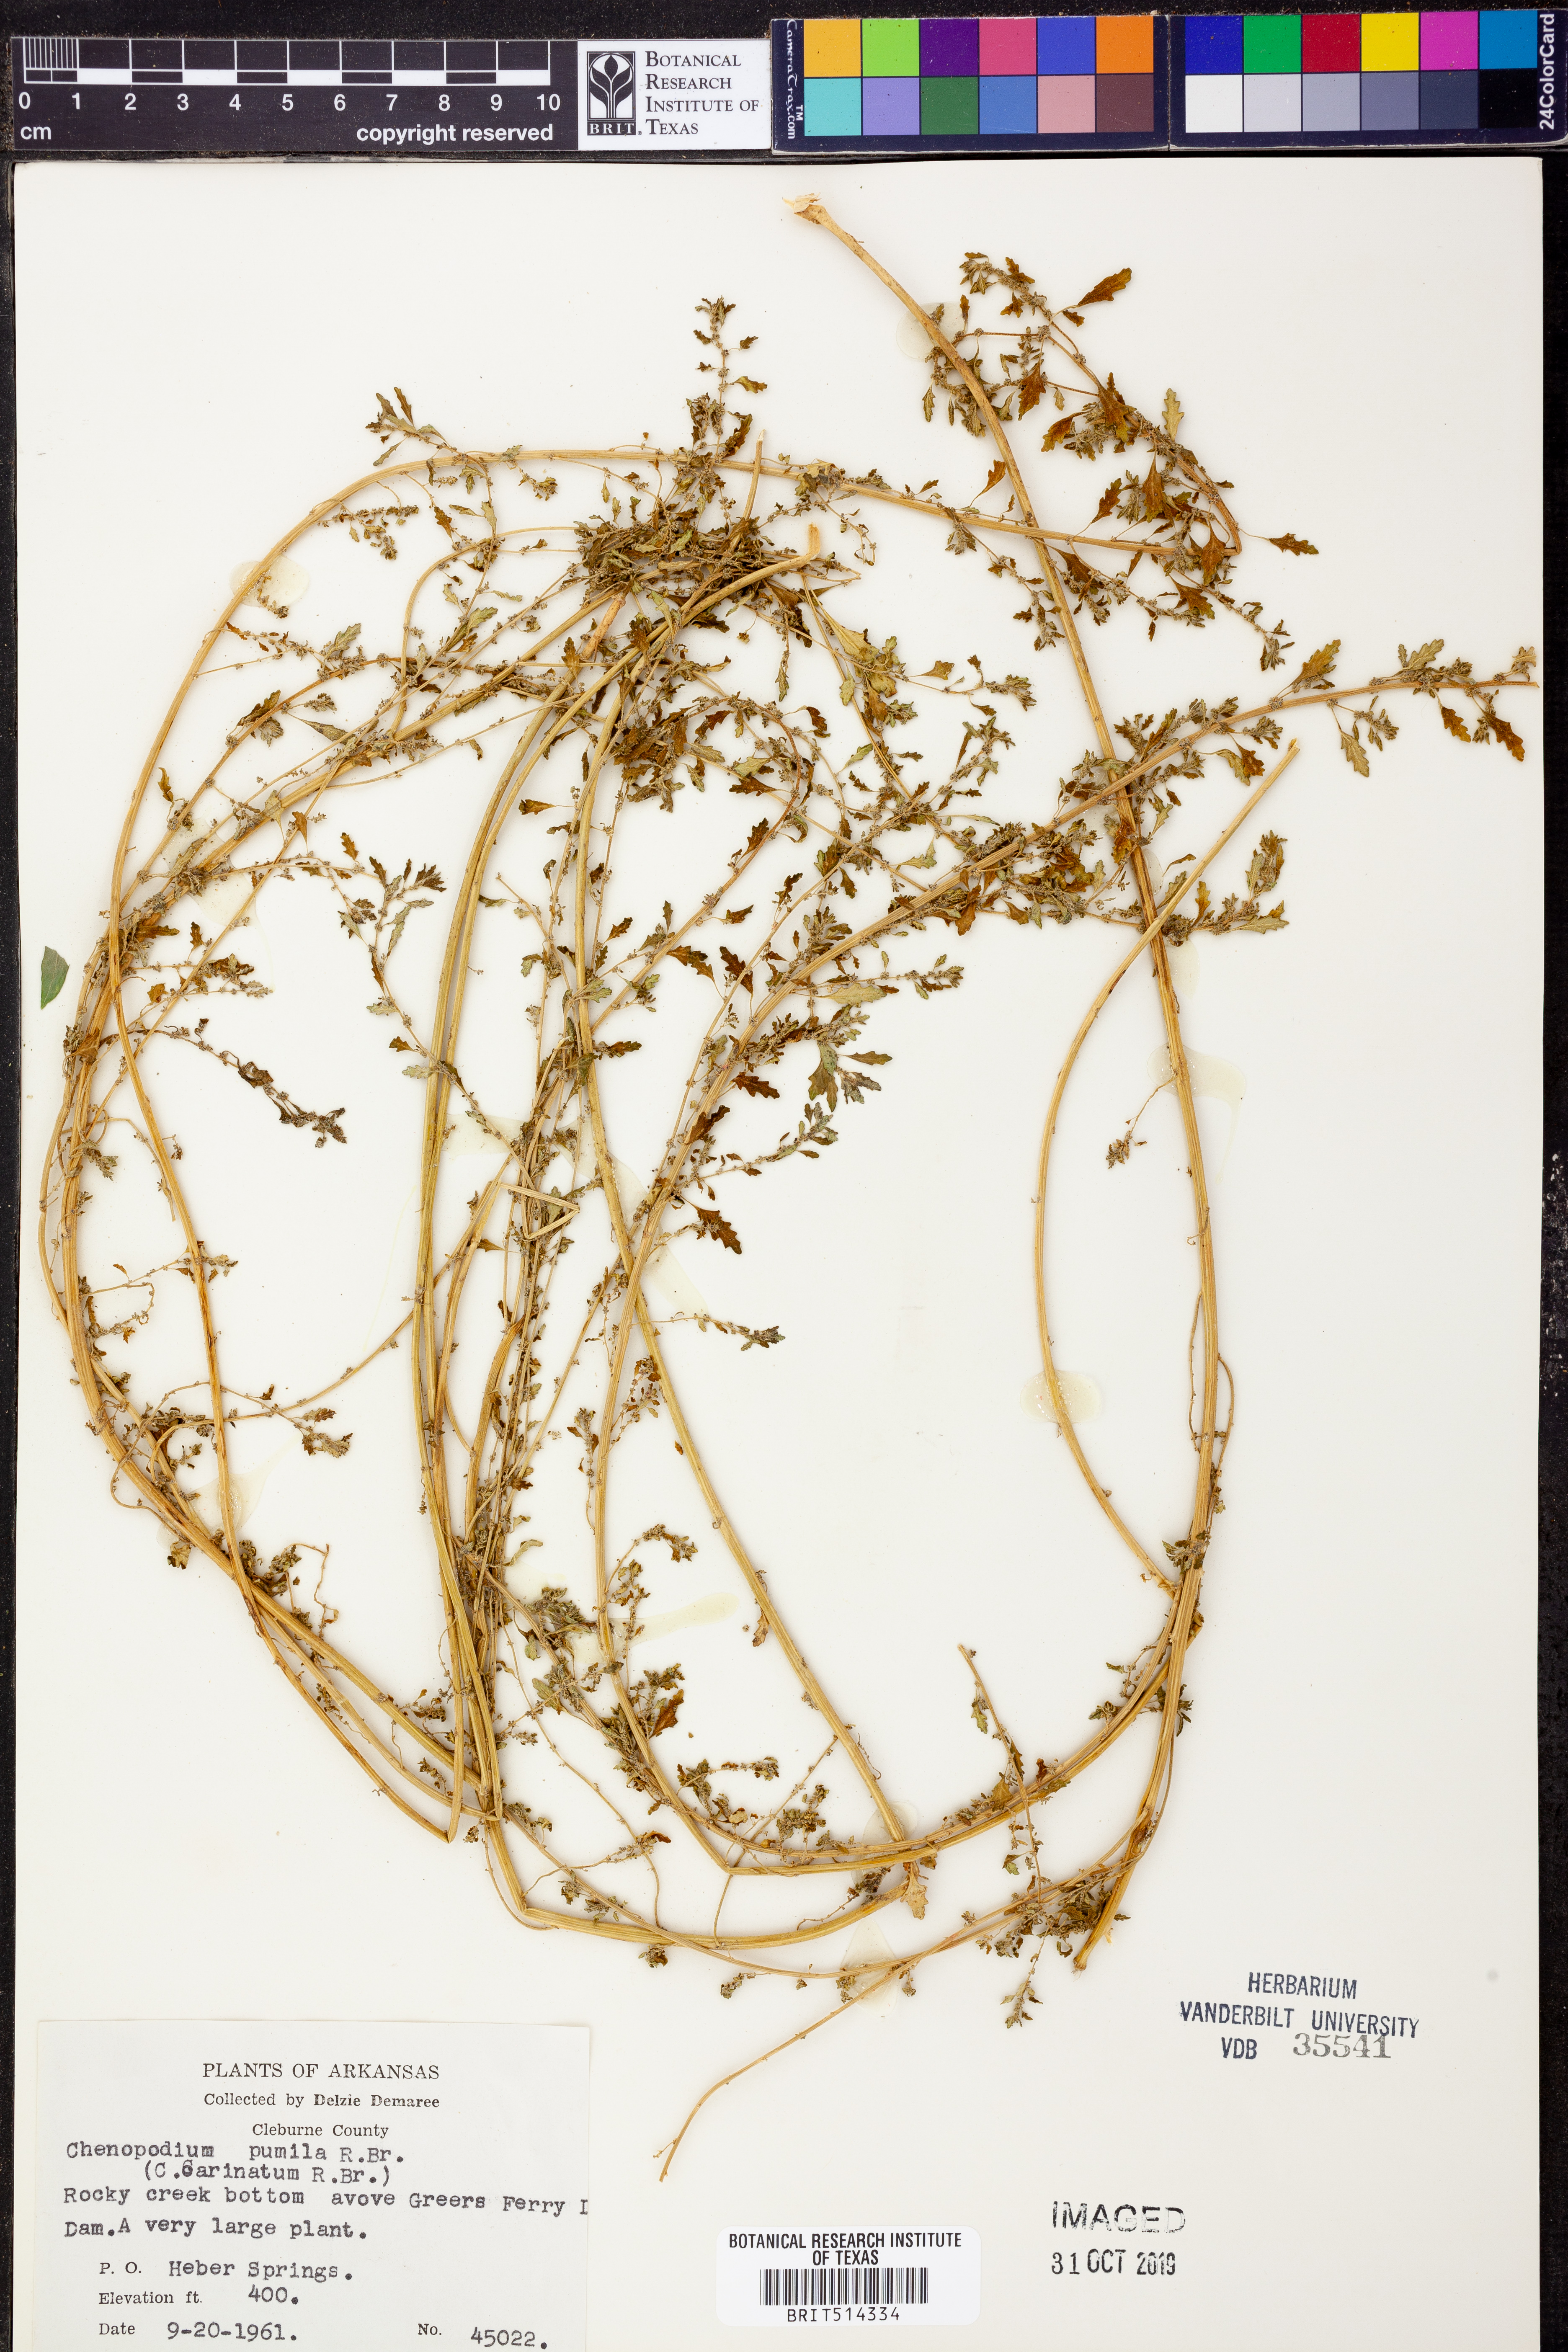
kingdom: Plantae
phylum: Tracheophyta
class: Magnoliopsida
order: Caryophyllales
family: Amaranthaceae
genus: Dysphania
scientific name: Dysphania pumilio
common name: Clammy goosefoot
